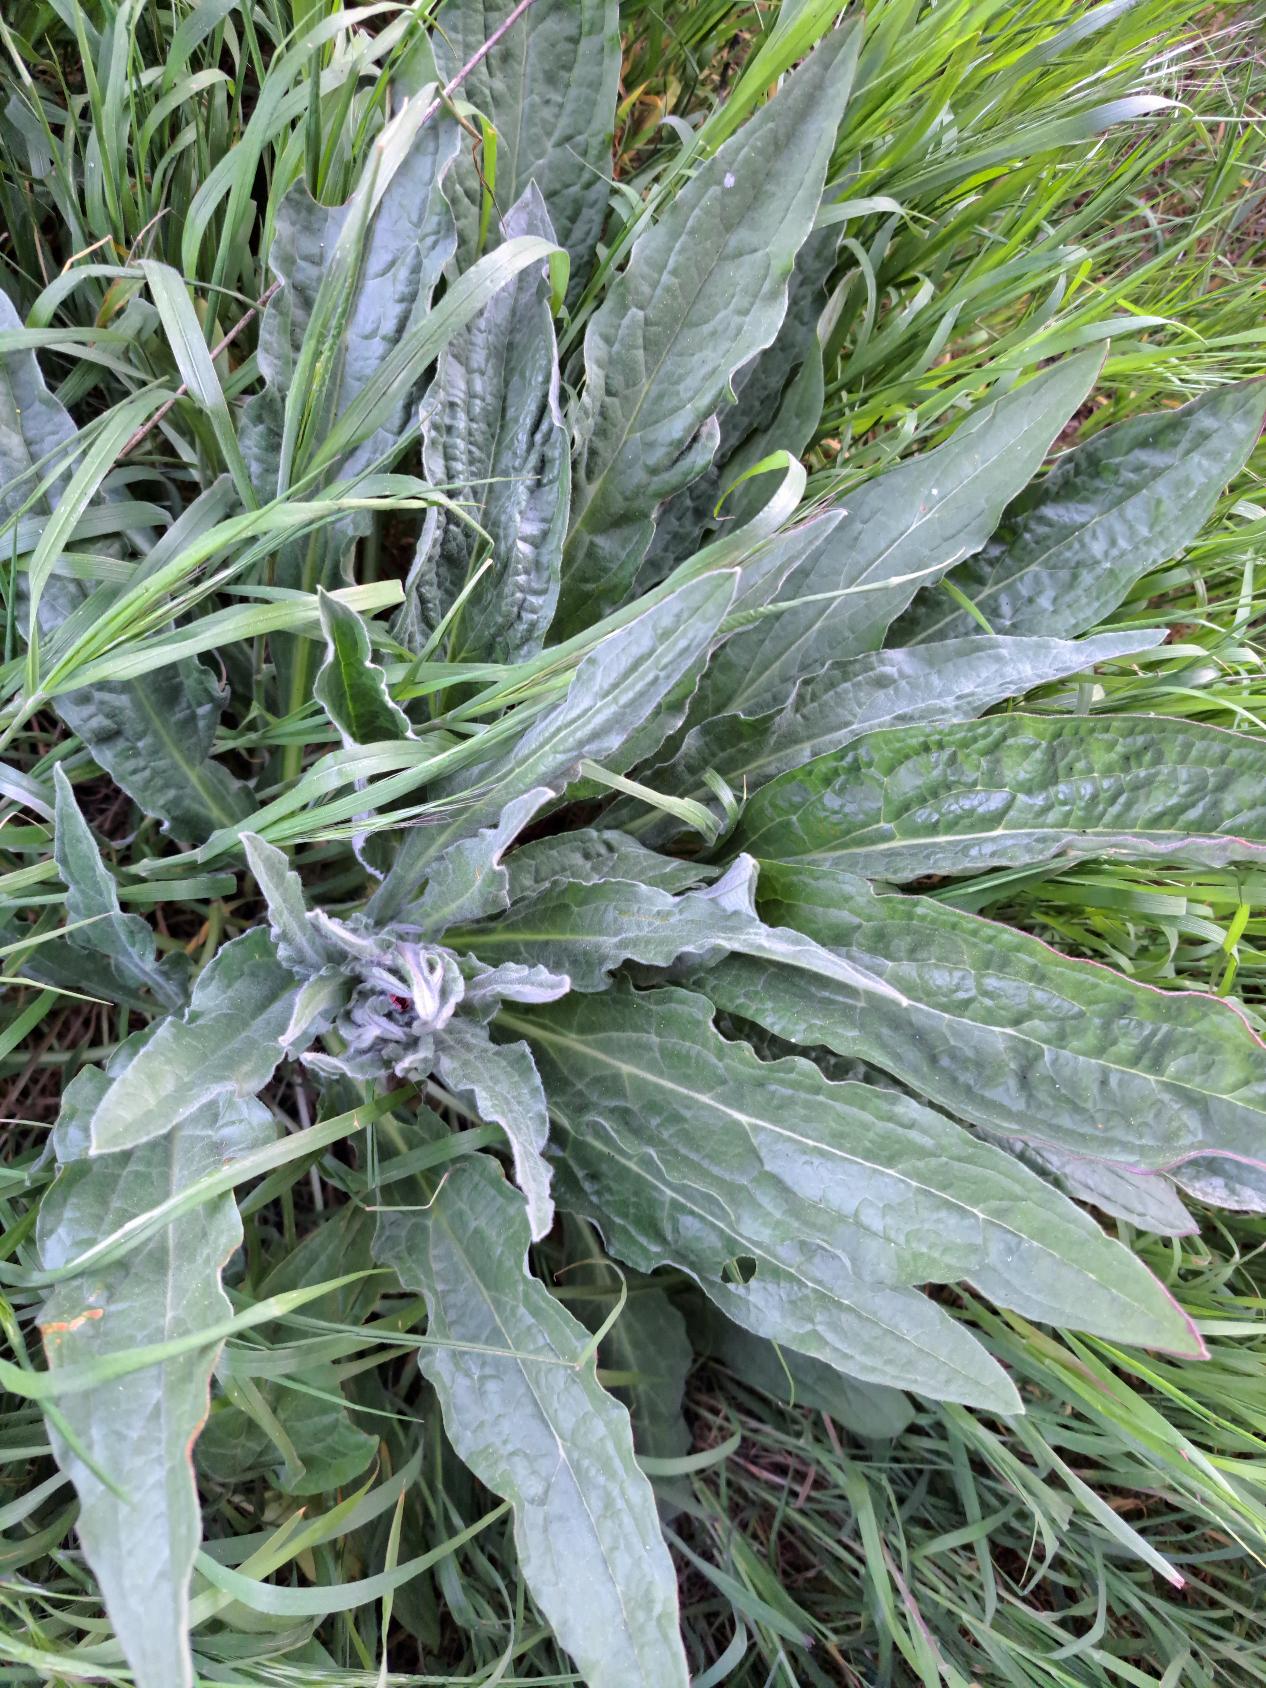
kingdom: Plantae
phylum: Tracheophyta
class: Magnoliopsida
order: Boraginales
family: Boraginaceae
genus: Cynoglossum
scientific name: Cynoglossum officinale
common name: Hundetunge
